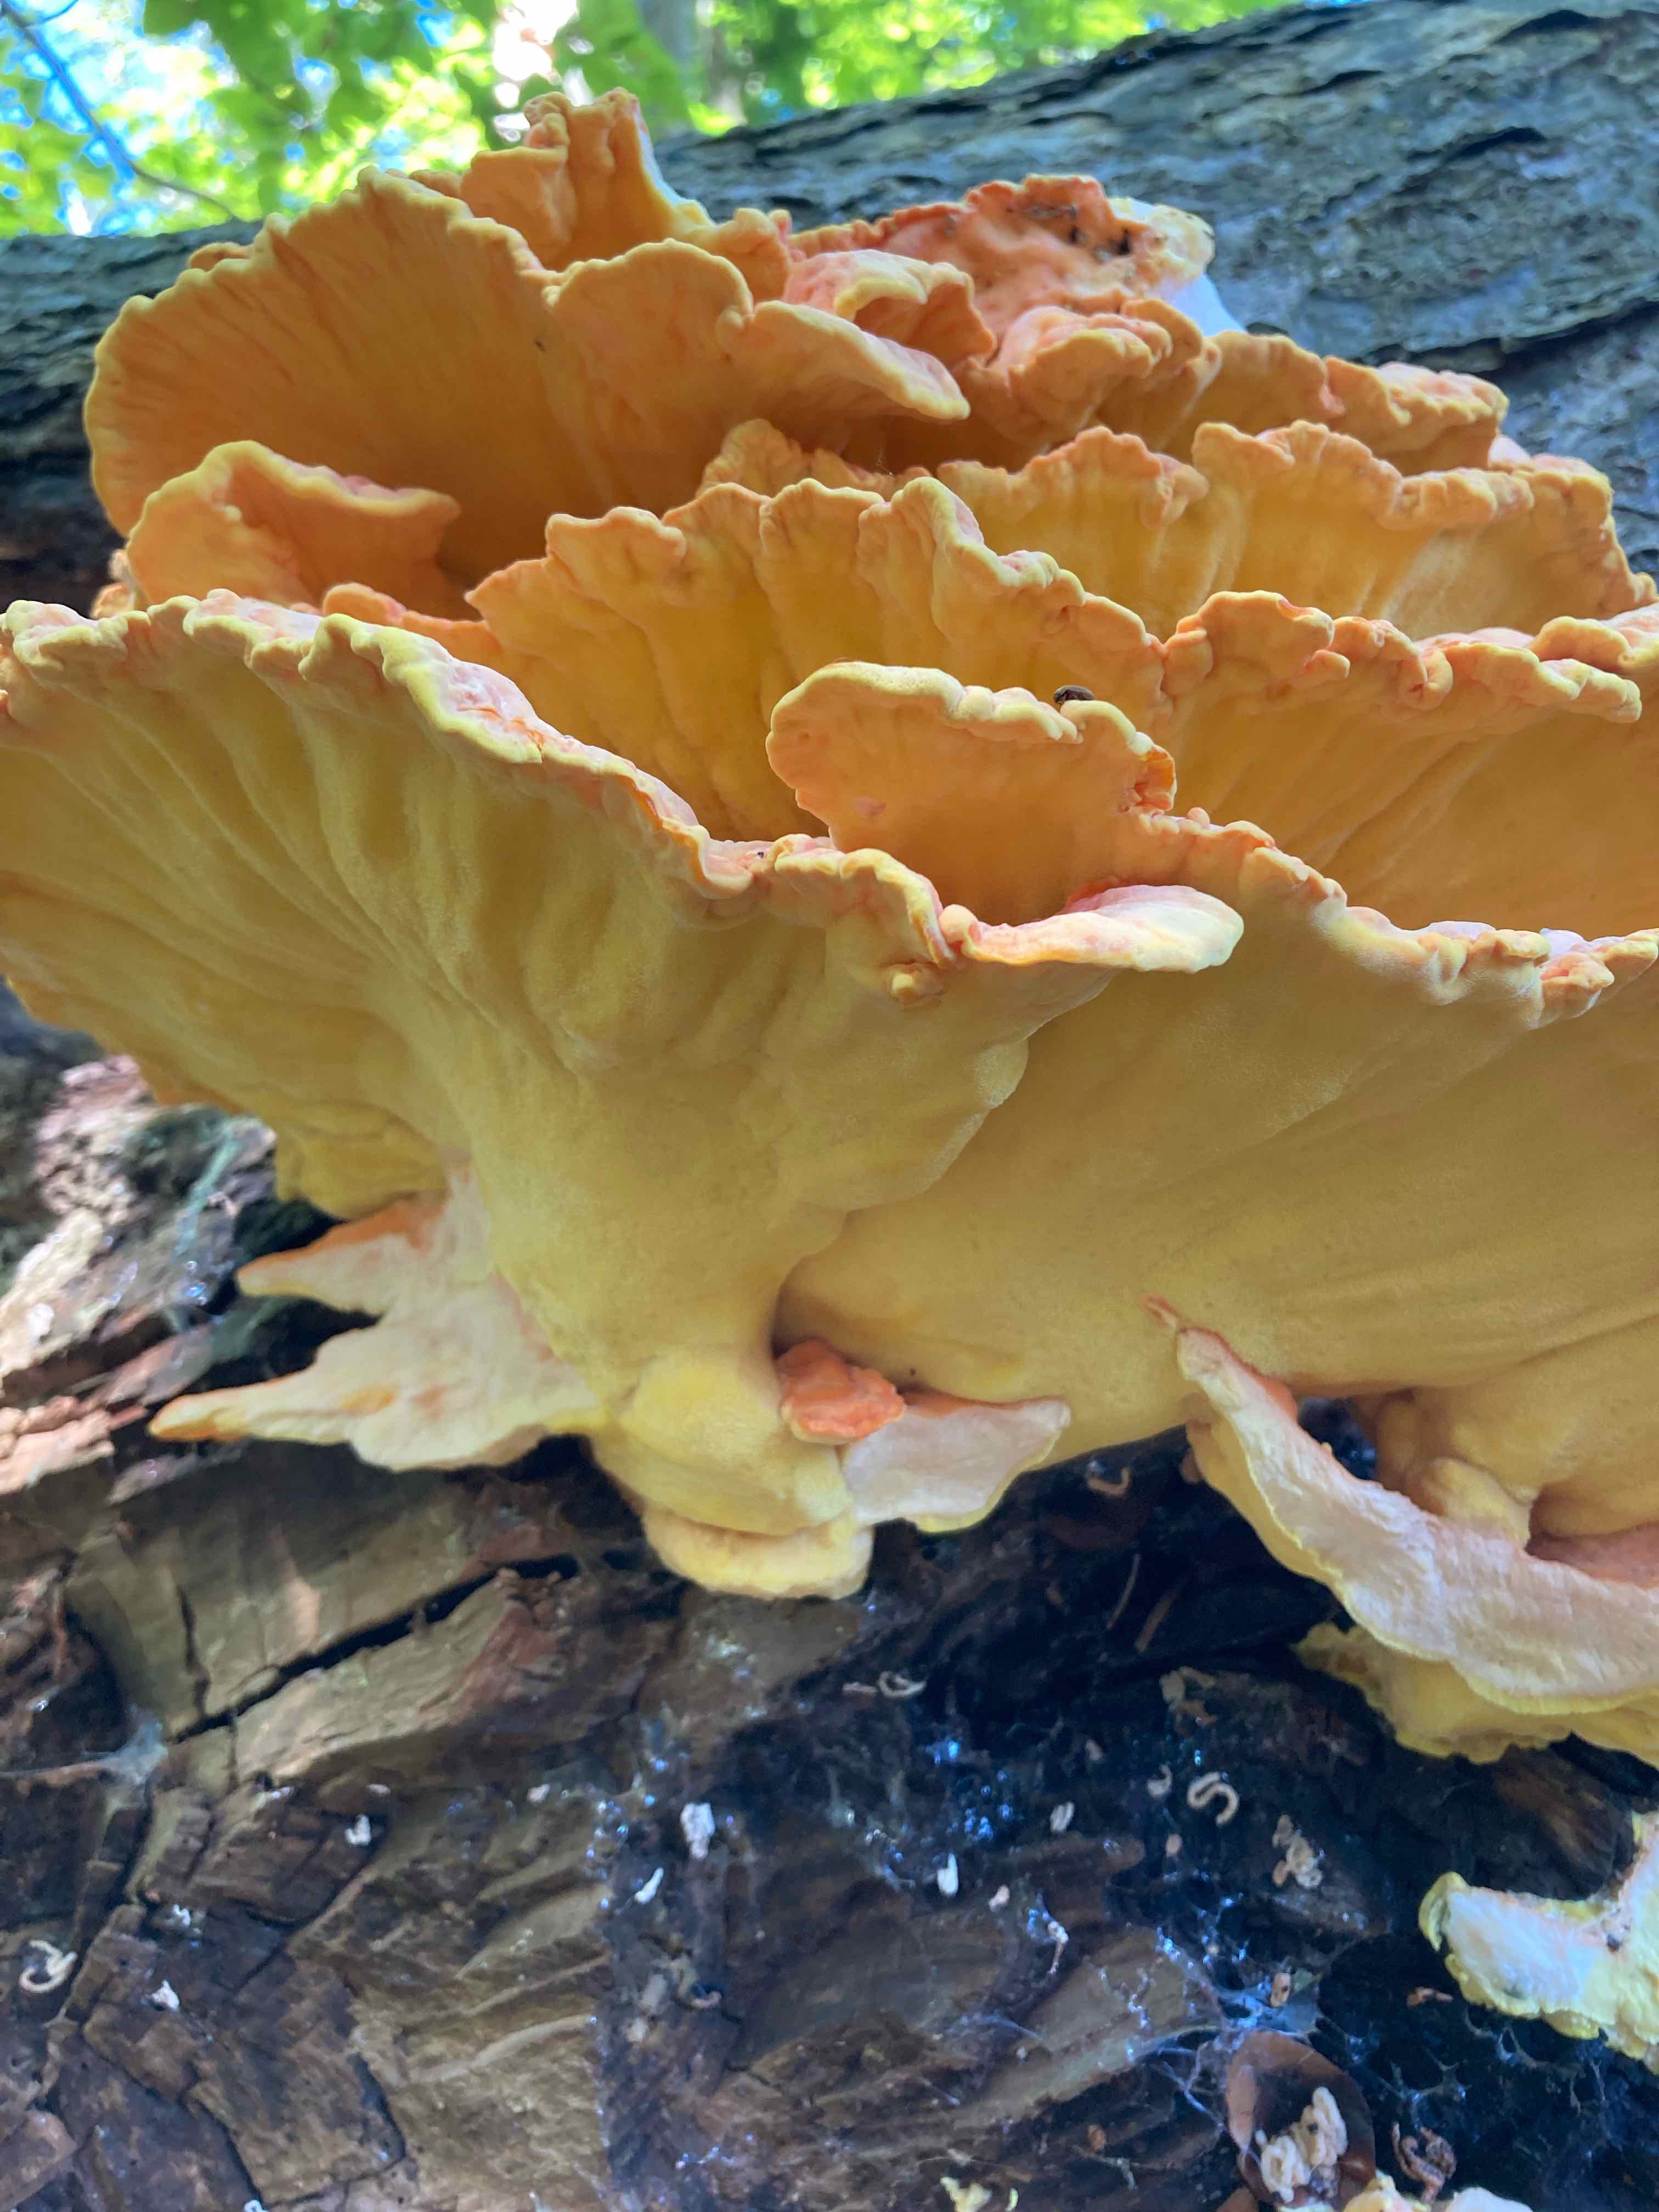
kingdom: Fungi
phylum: Basidiomycota
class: Agaricomycetes
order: Polyporales
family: Laetiporaceae
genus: Laetiporus
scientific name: Laetiporus sulphureus
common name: svovlporesvamp
